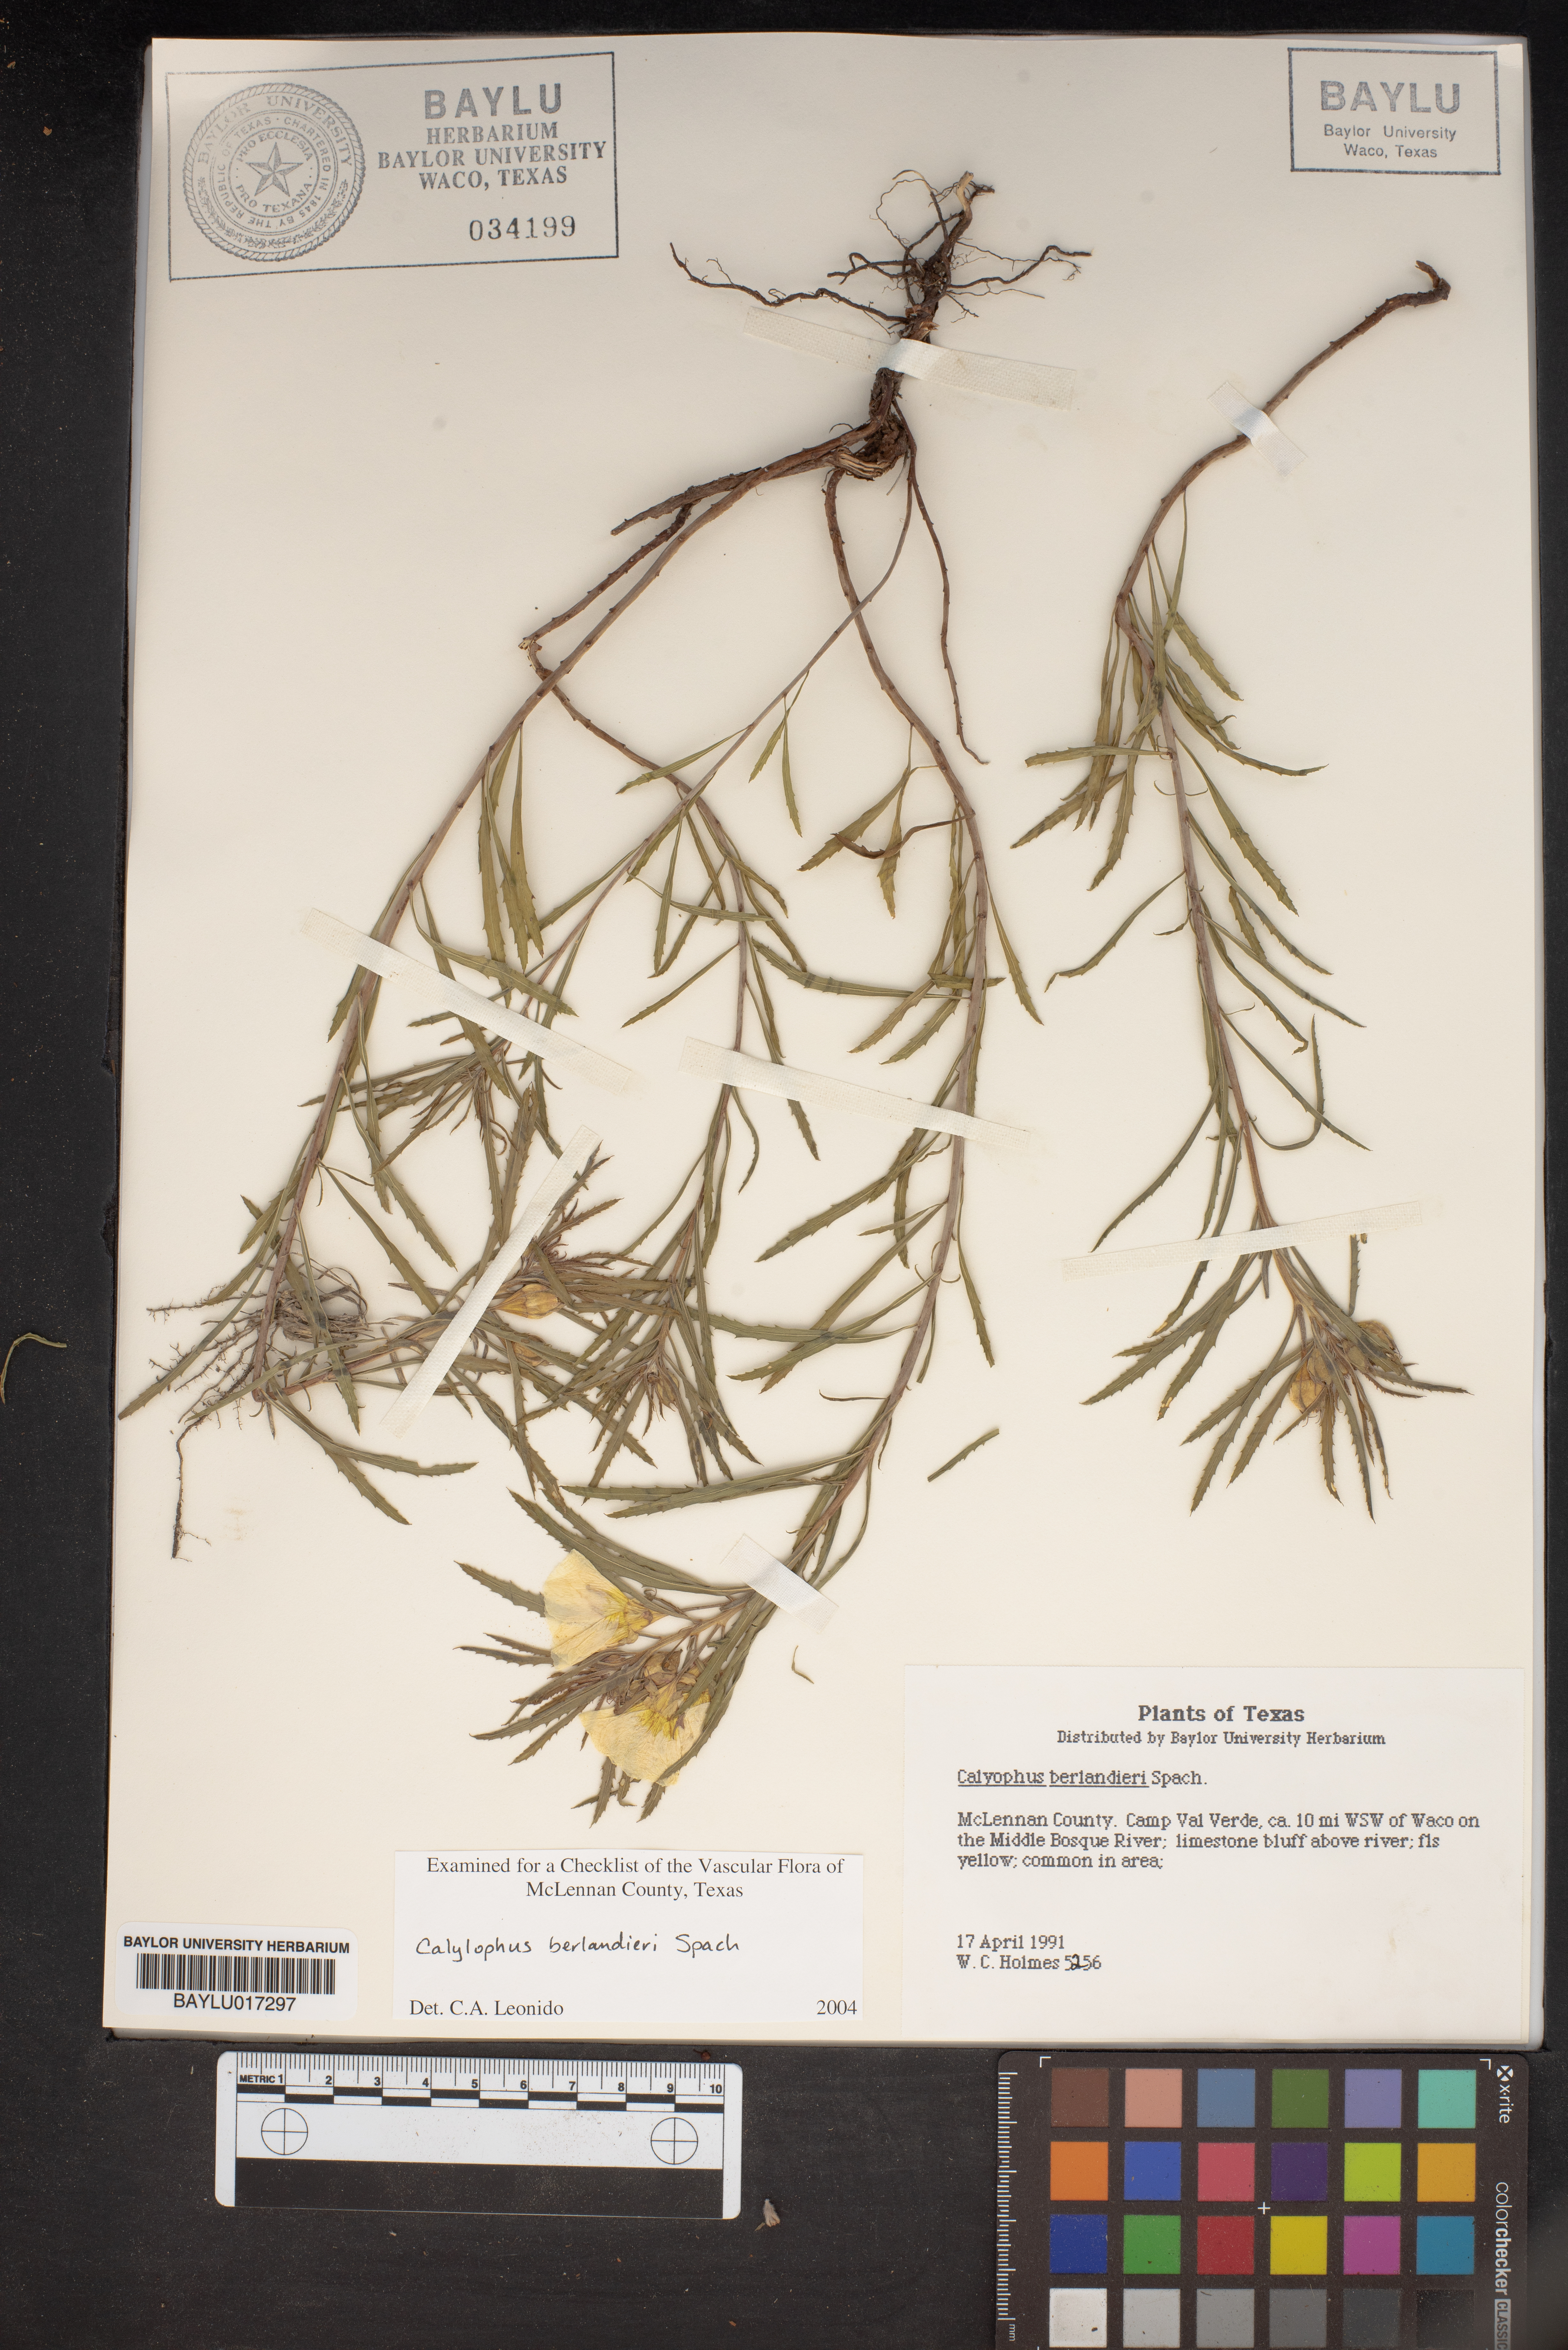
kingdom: Plantae
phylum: Tracheophyta
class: Magnoliopsida
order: Myrtales
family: Onagraceae
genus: Oenothera
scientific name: Oenothera capillifolia
